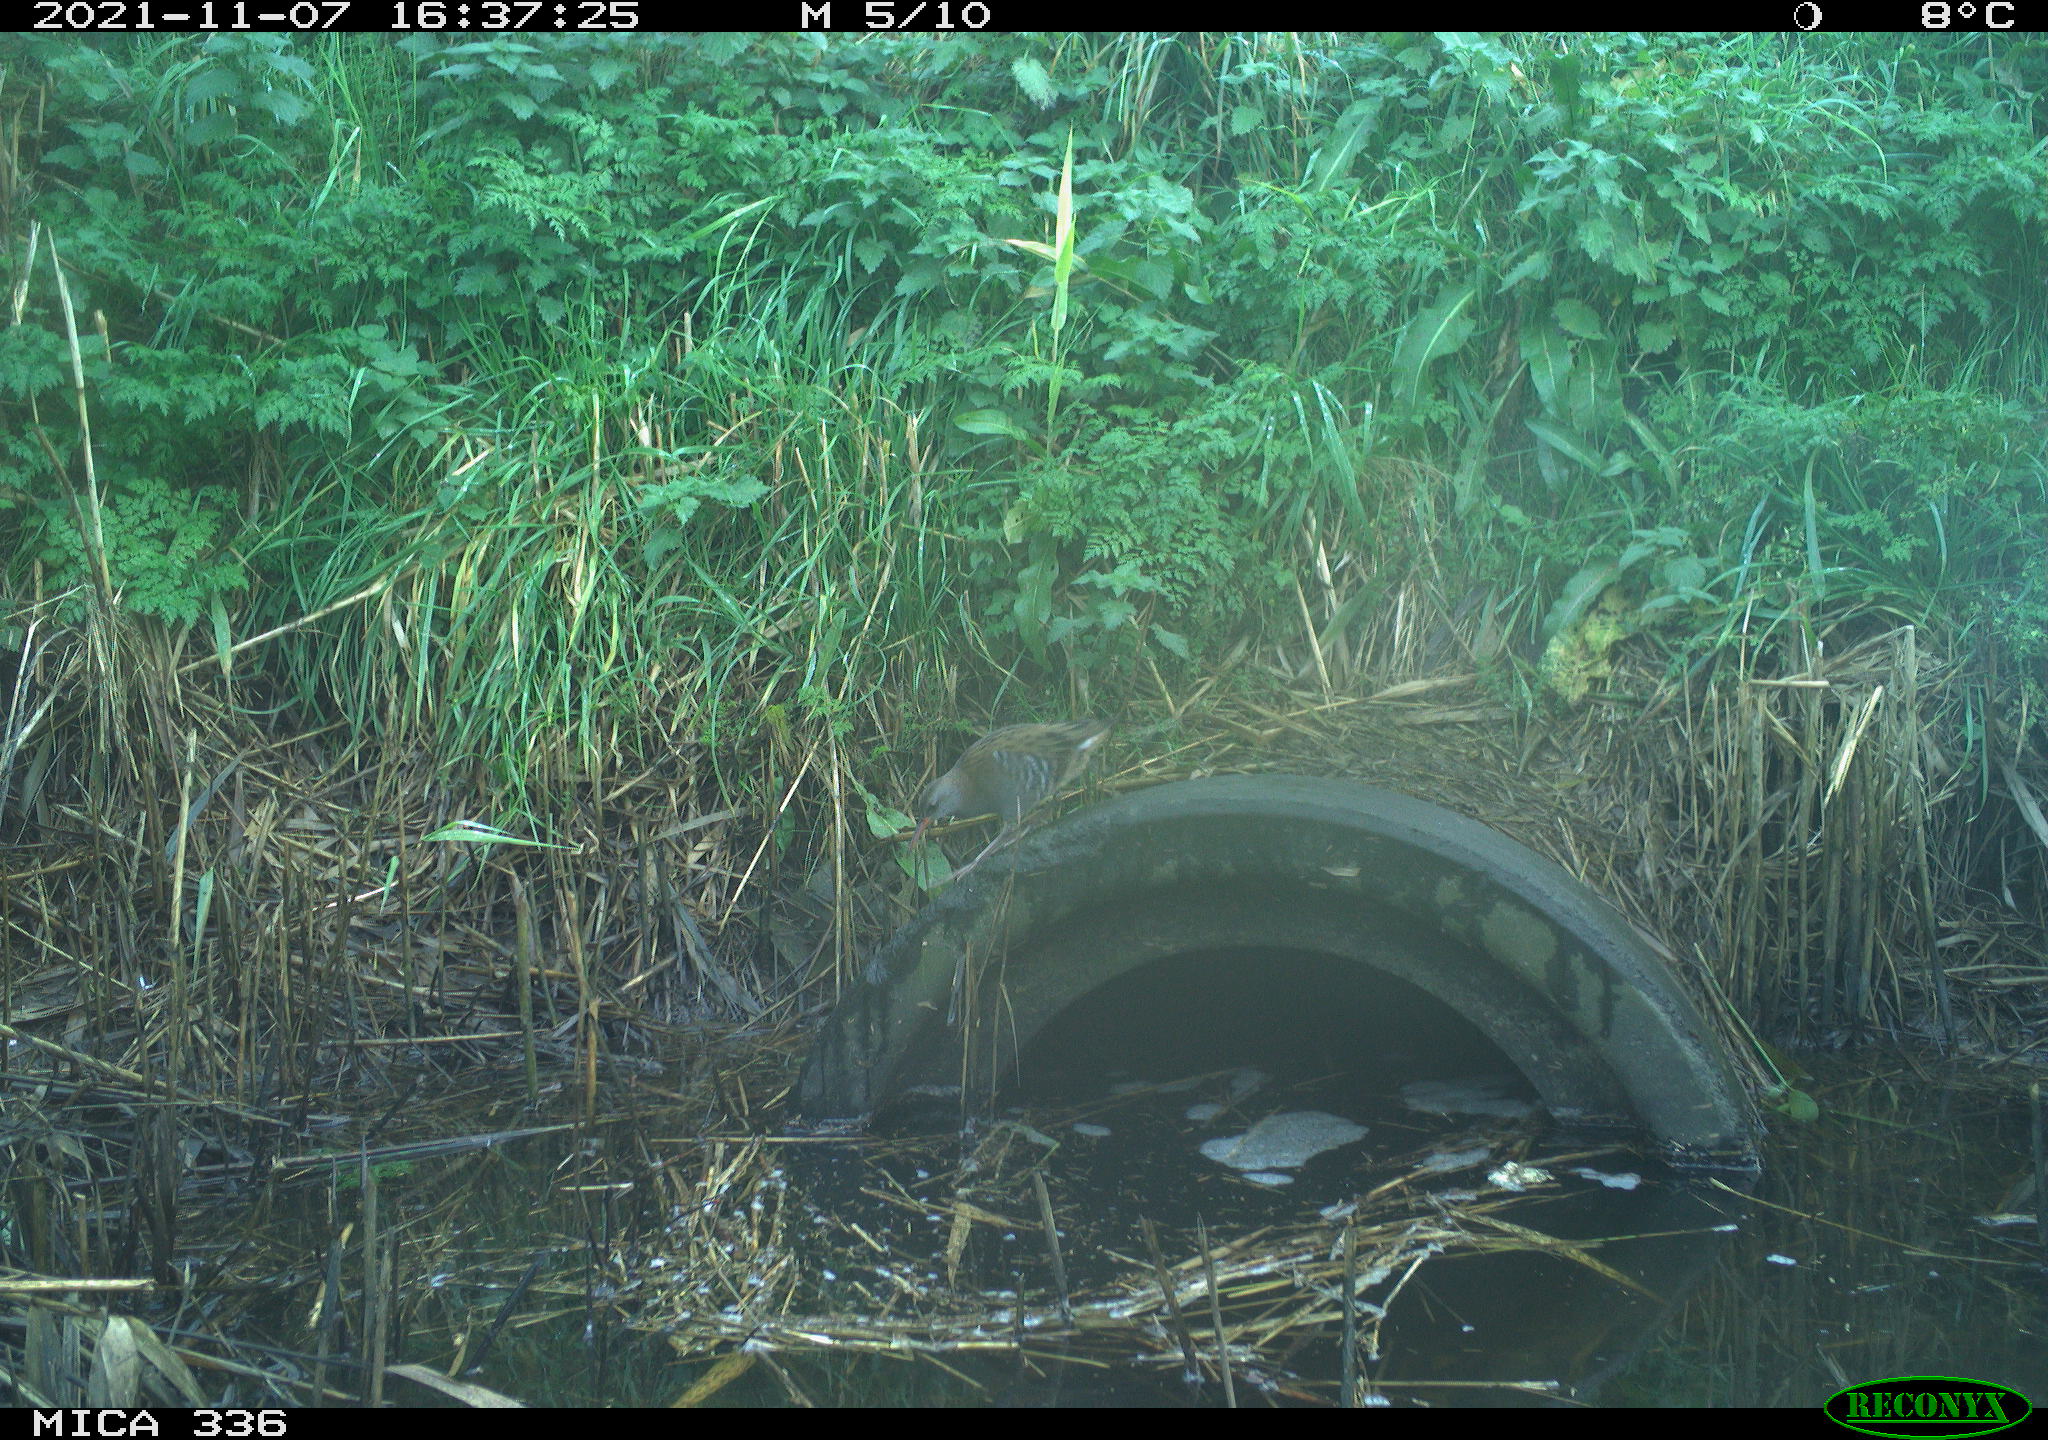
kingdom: Animalia
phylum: Chordata
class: Aves
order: Gruiformes
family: Rallidae
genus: Gallinula
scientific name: Gallinula chloropus
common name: Common moorhen
